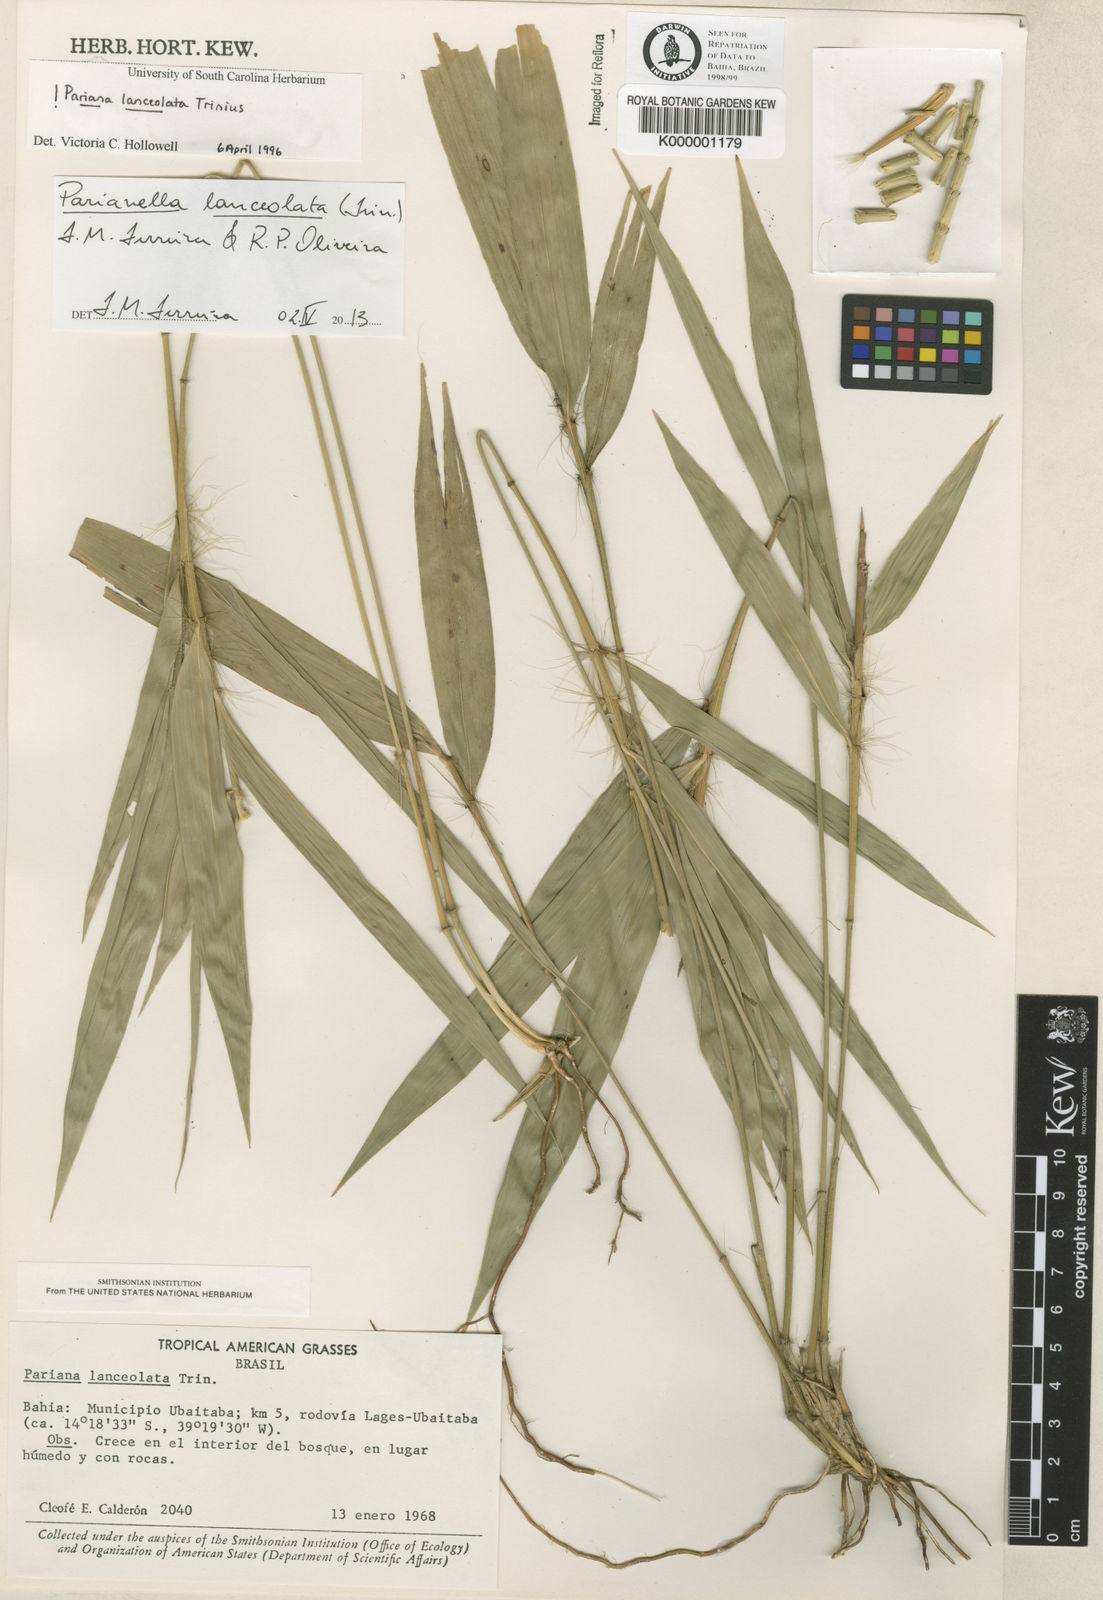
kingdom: Plantae
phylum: Tracheophyta
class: Liliopsida
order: Poales
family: Poaceae
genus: Parianella
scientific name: Parianella lanceolata
